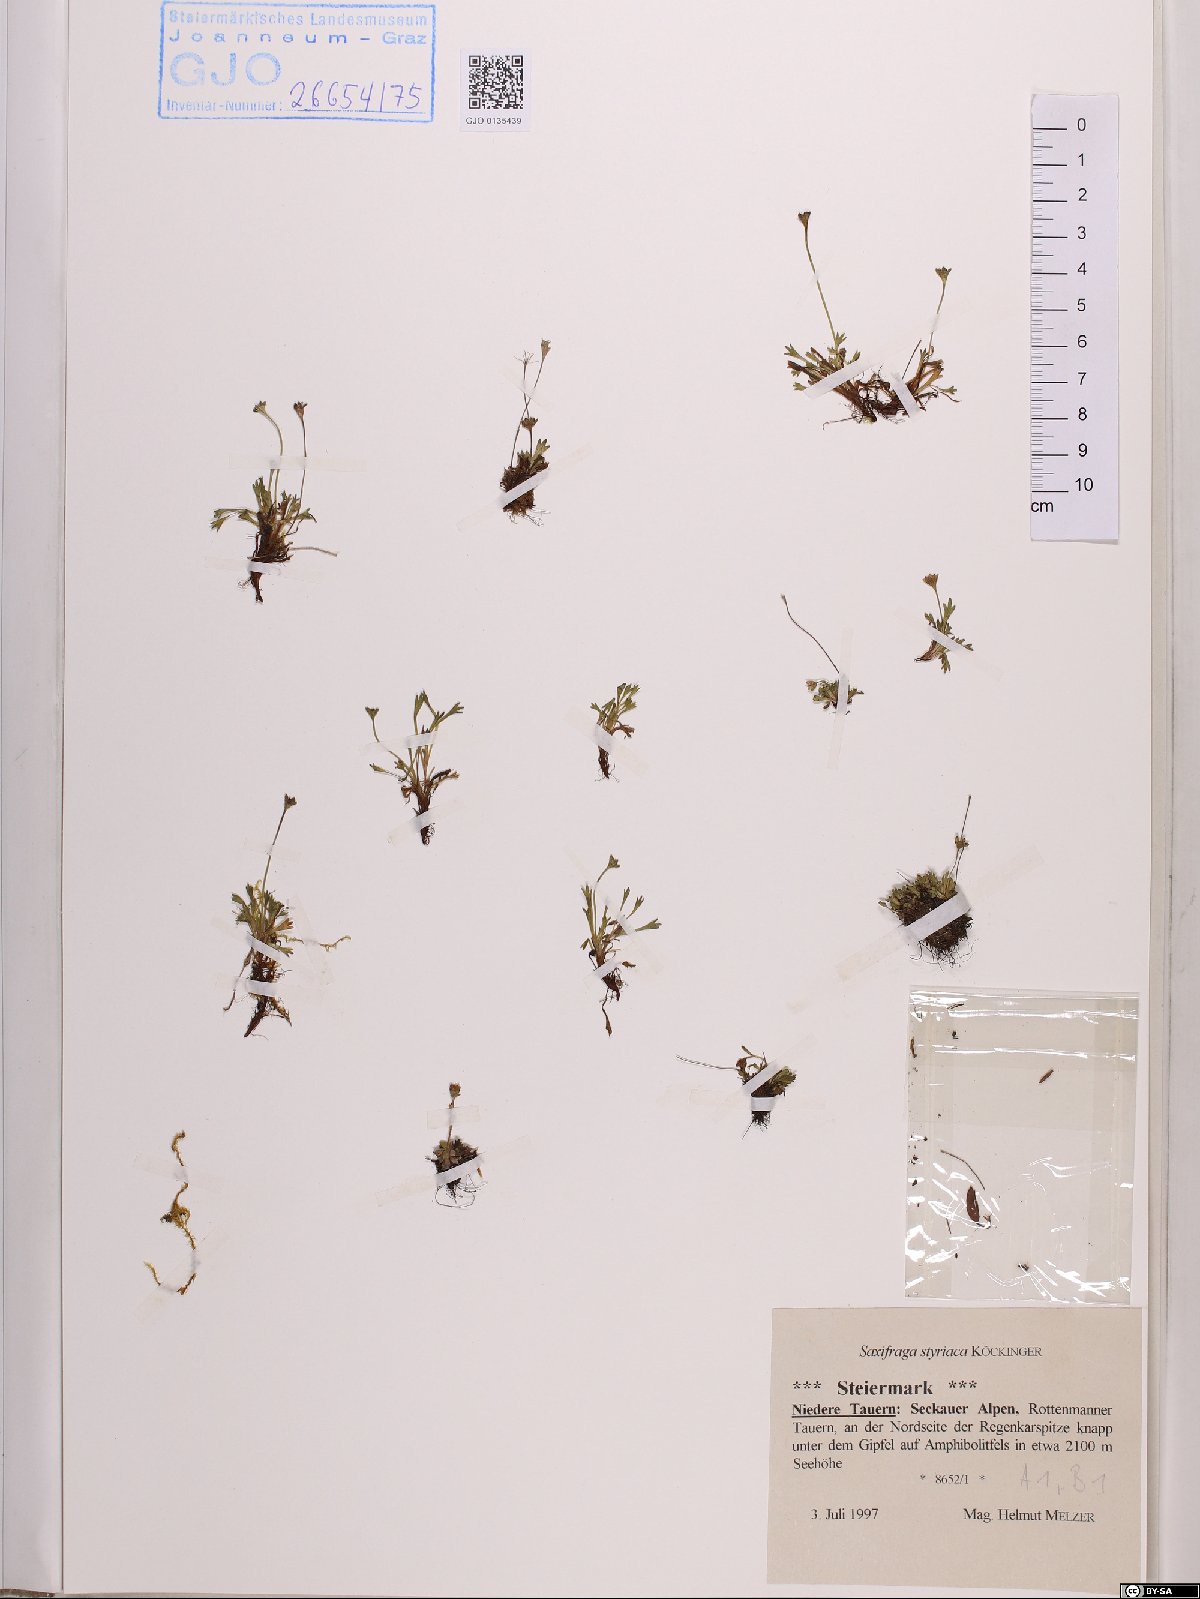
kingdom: Plantae
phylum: Tracheophyta
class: Magnoliopsida
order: Saxifragales
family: Saxifragaceae
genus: Saxifraga
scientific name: Saxifraga styriaca
